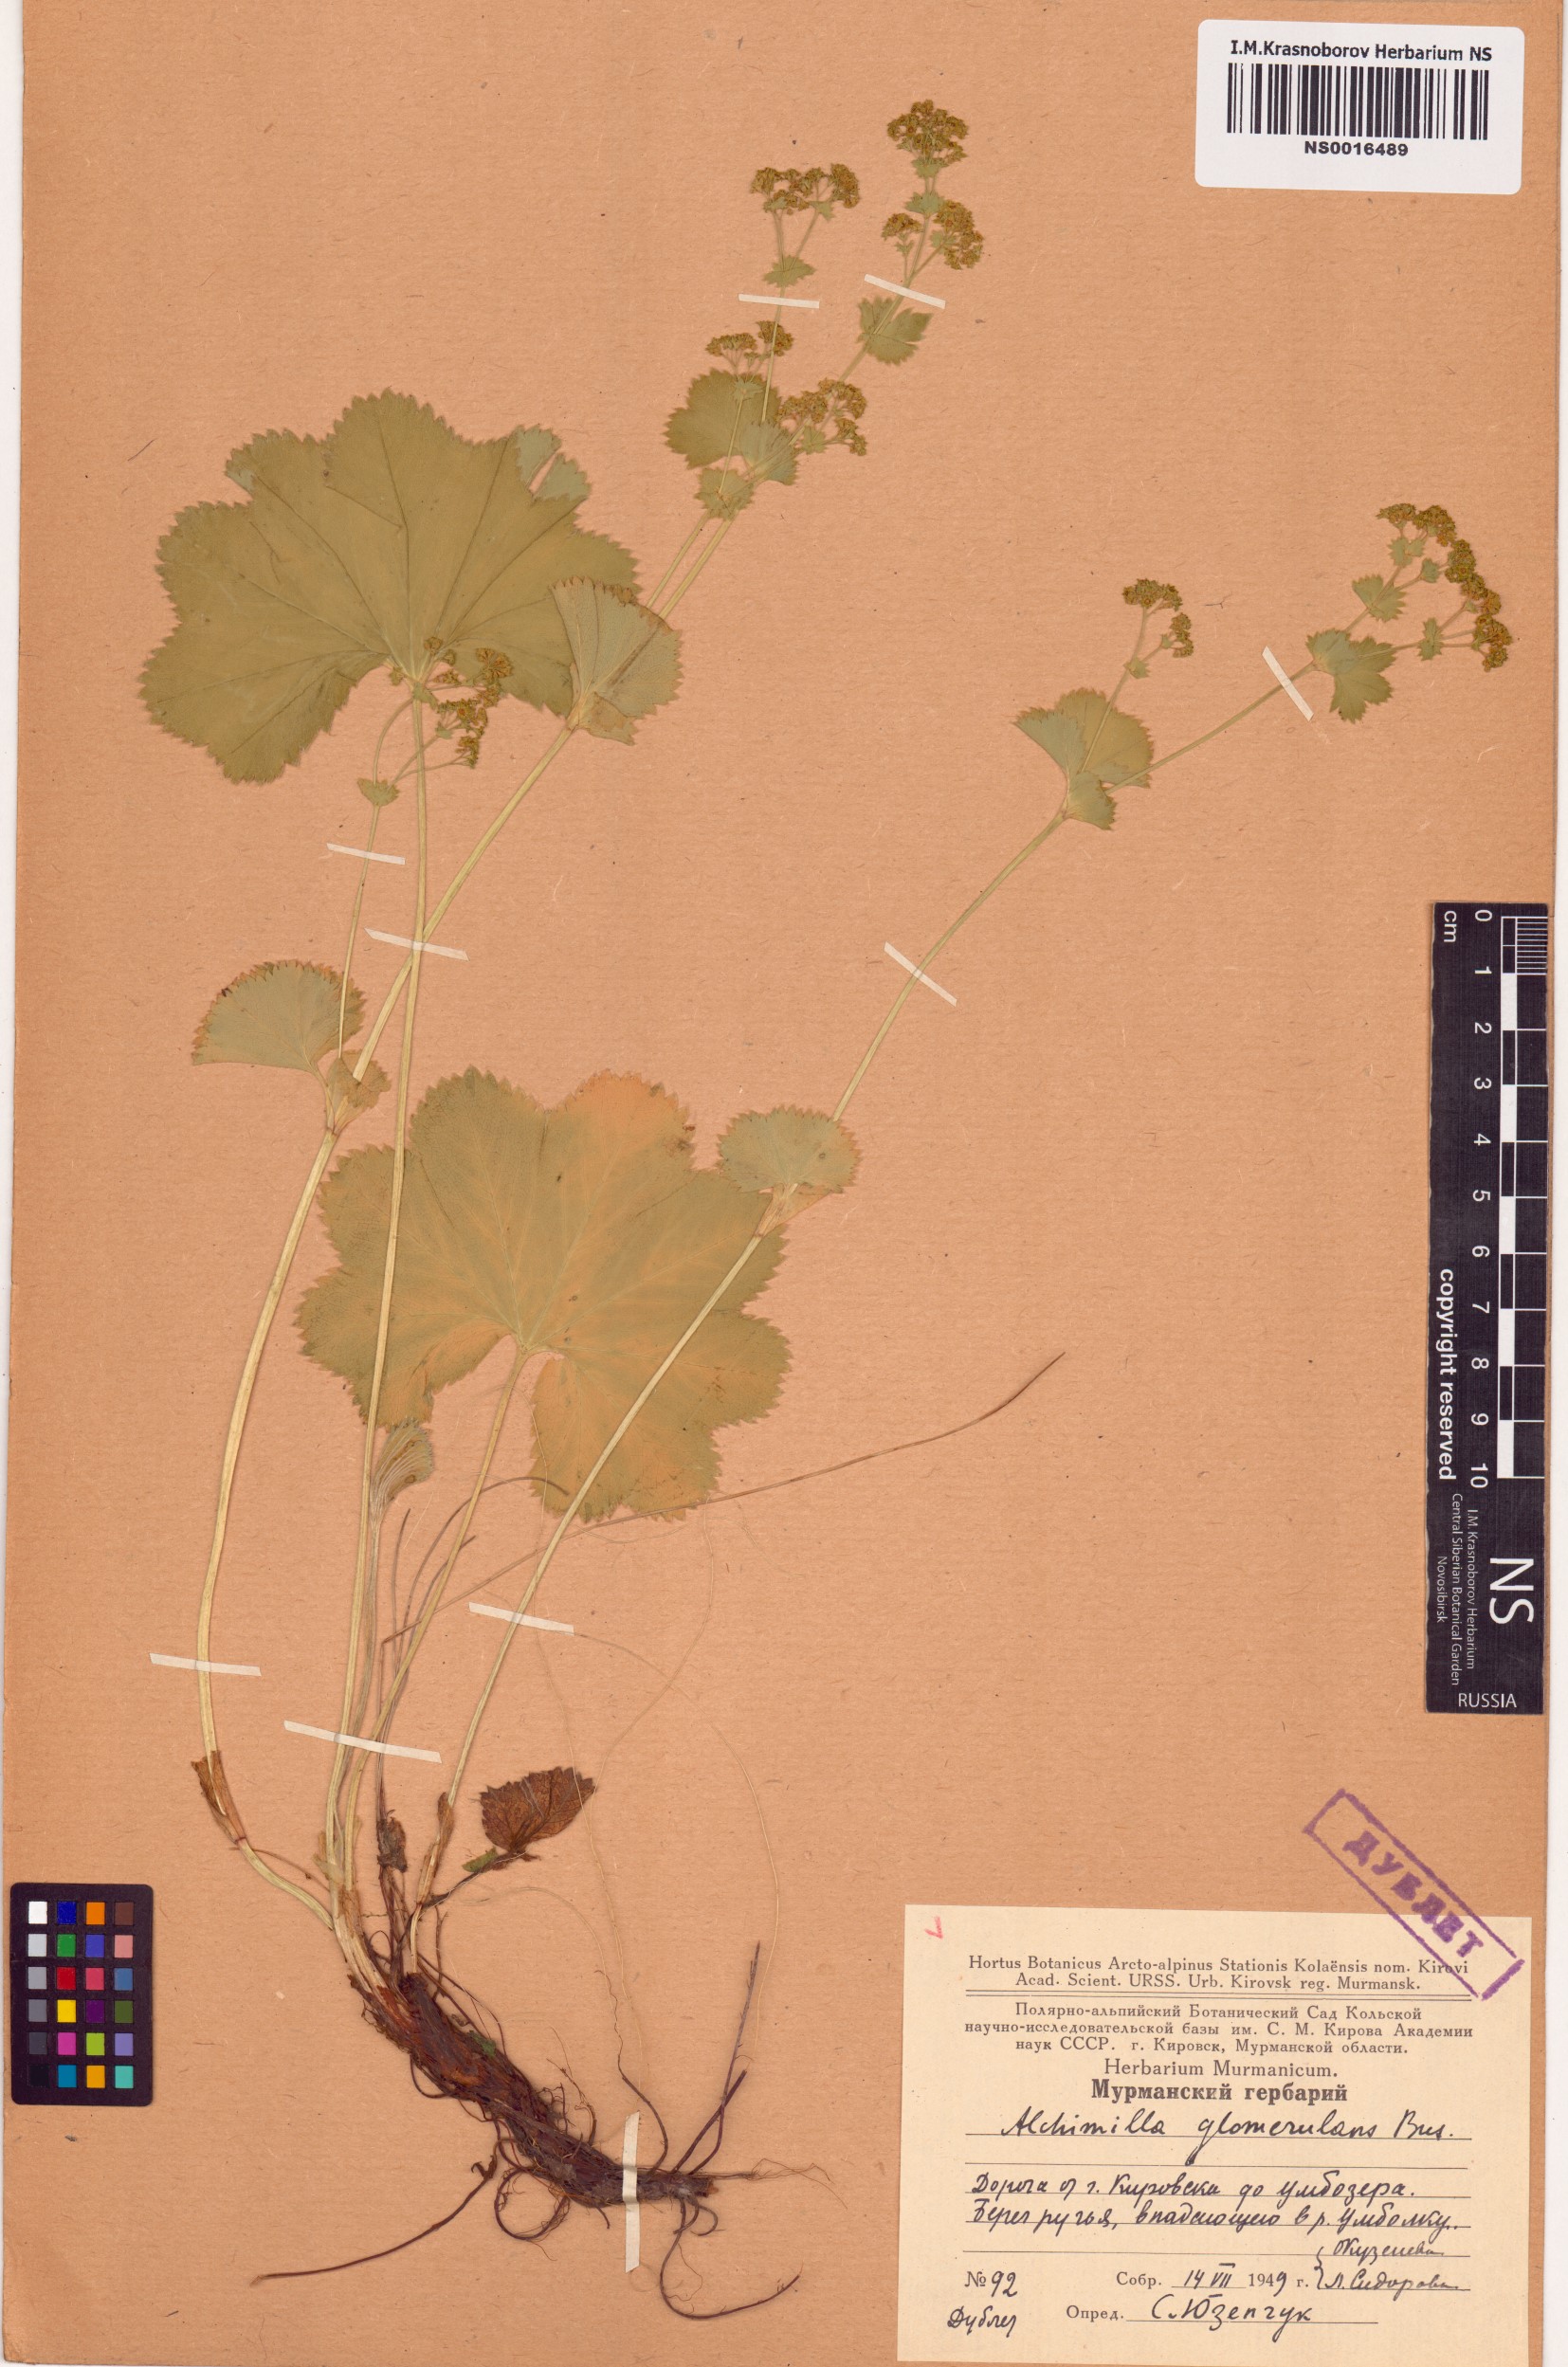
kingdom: Plantae
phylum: Tracheophyta
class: Magnoliopsida
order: Rosales
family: Rosaceae
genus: Alchemilla
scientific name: Alchemilla glomerulans
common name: Clustered lady's mantle
